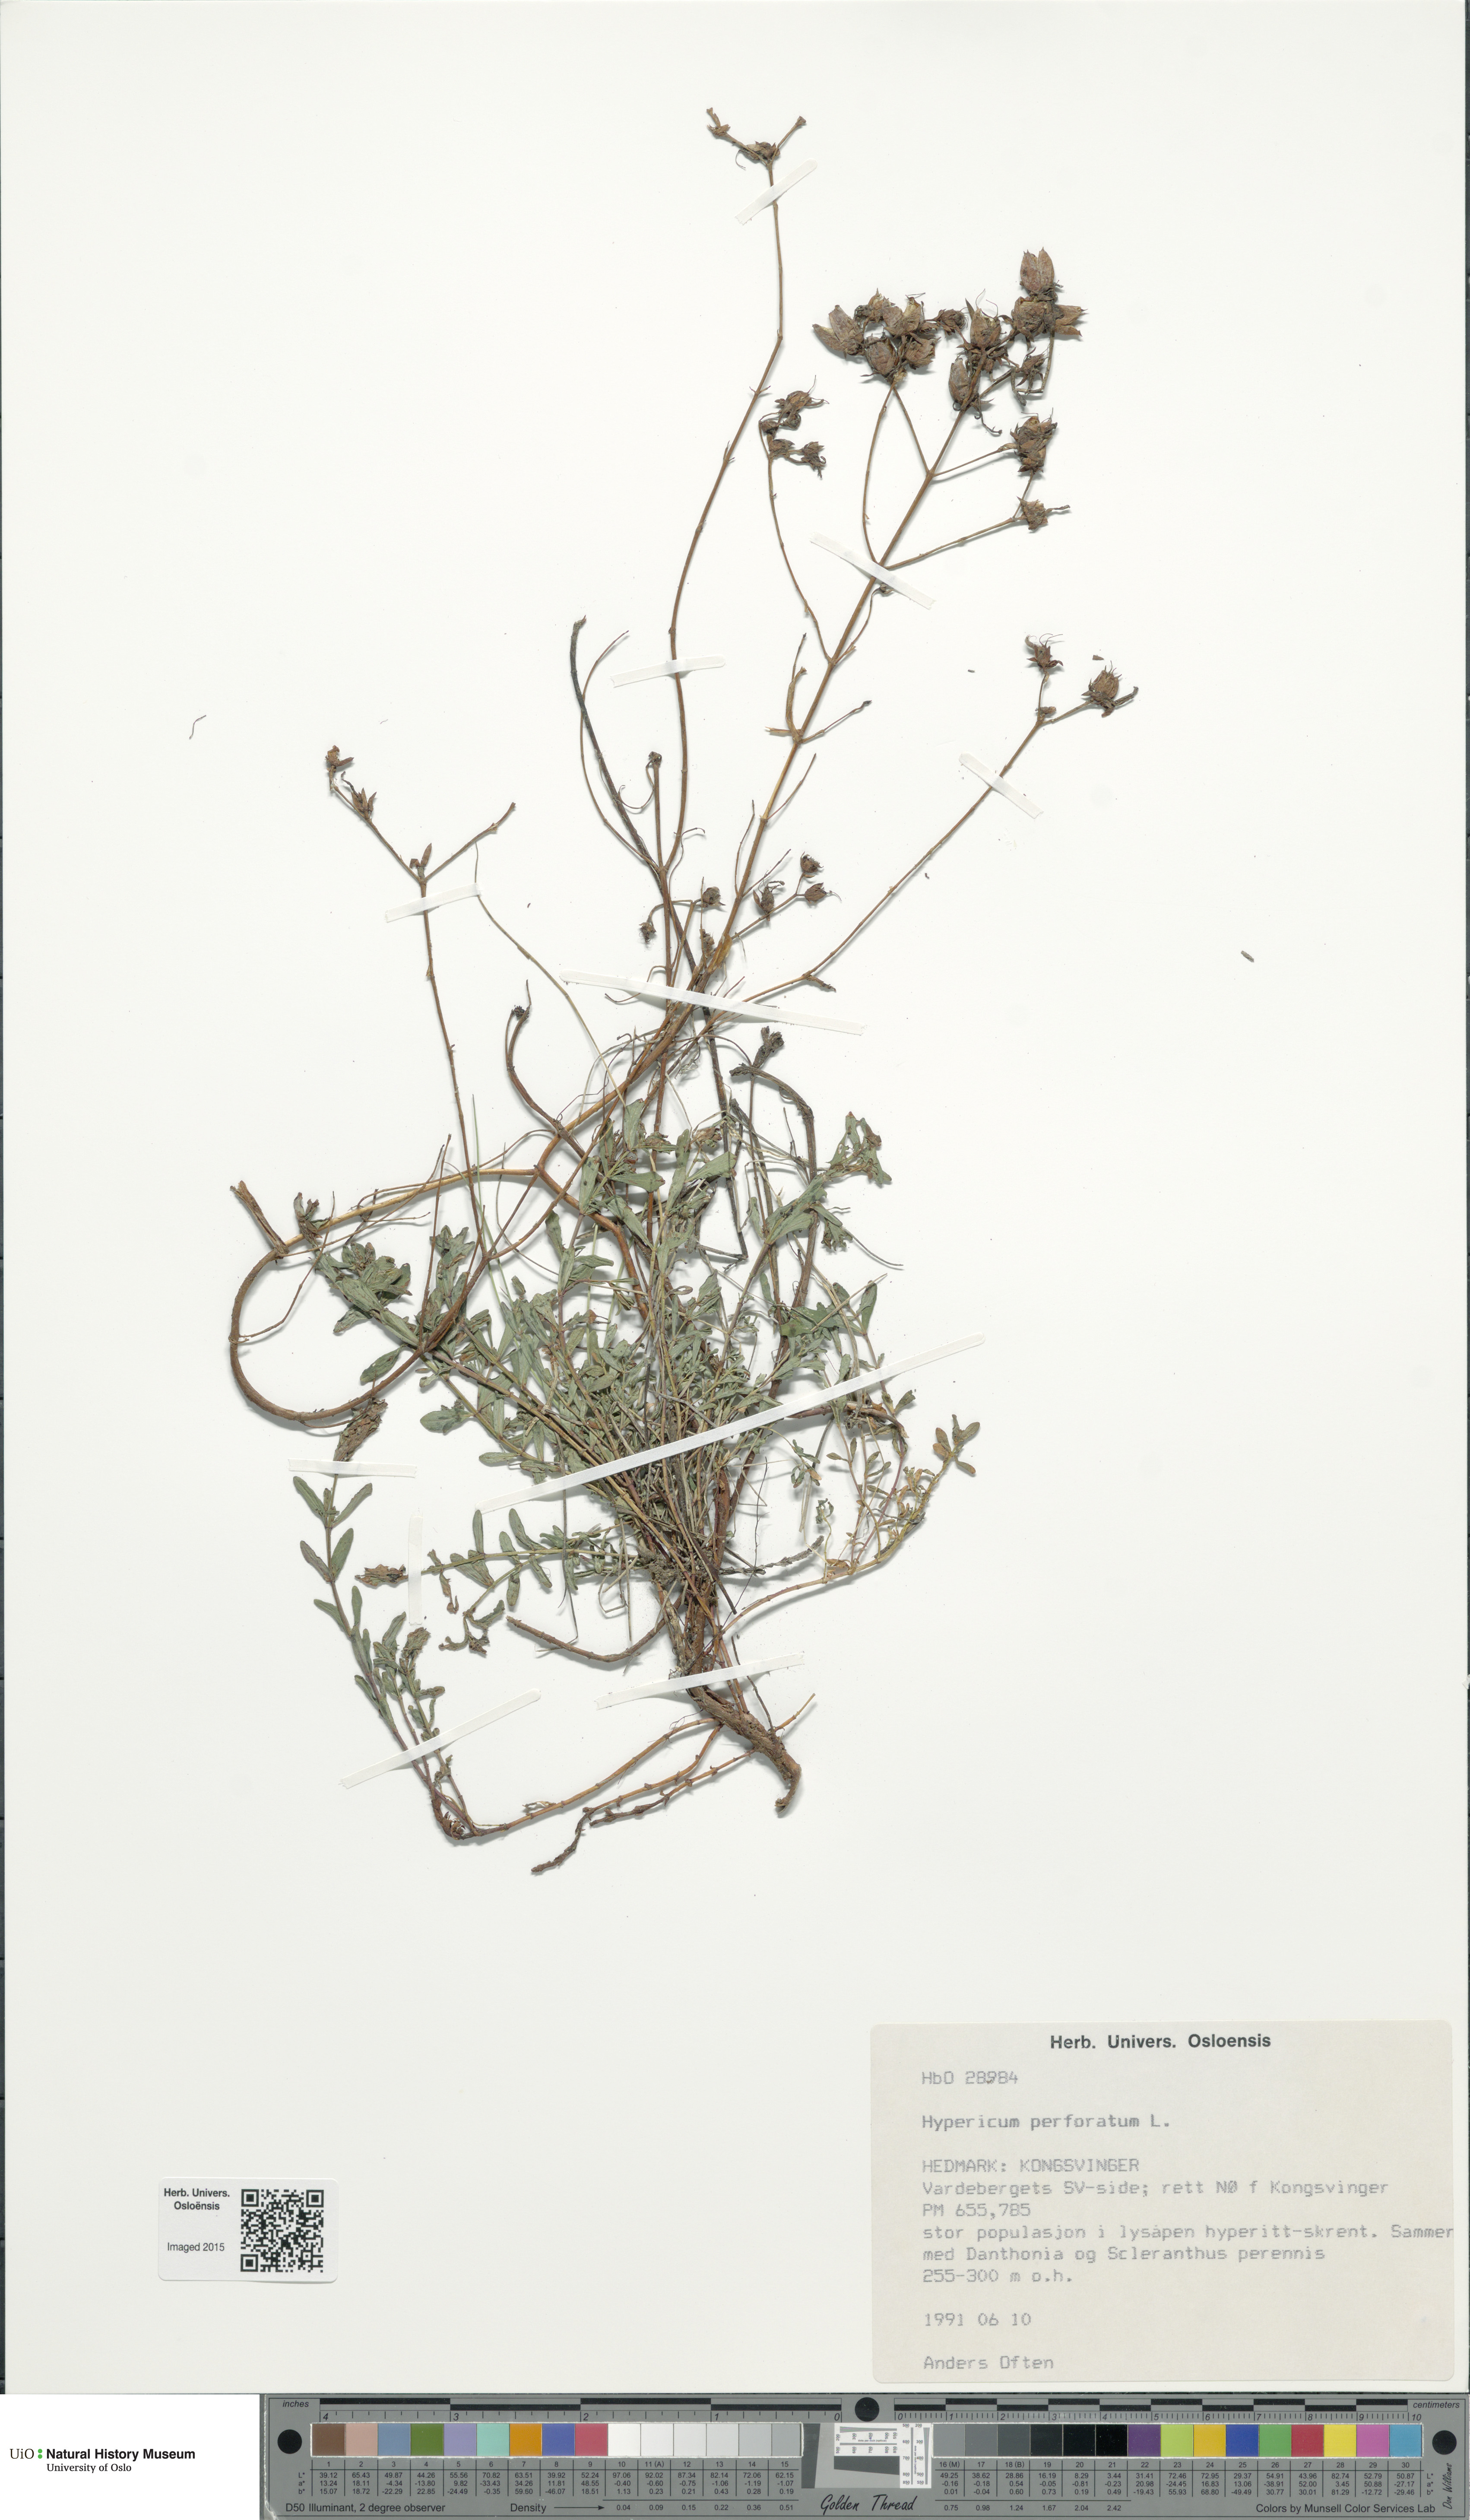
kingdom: Plantae
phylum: Tracheophyta
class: Magnoliopsida
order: Malpighiales
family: Hypericaceae
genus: Hypericum
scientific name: Hypericum perforatum
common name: Common st. johnswort
